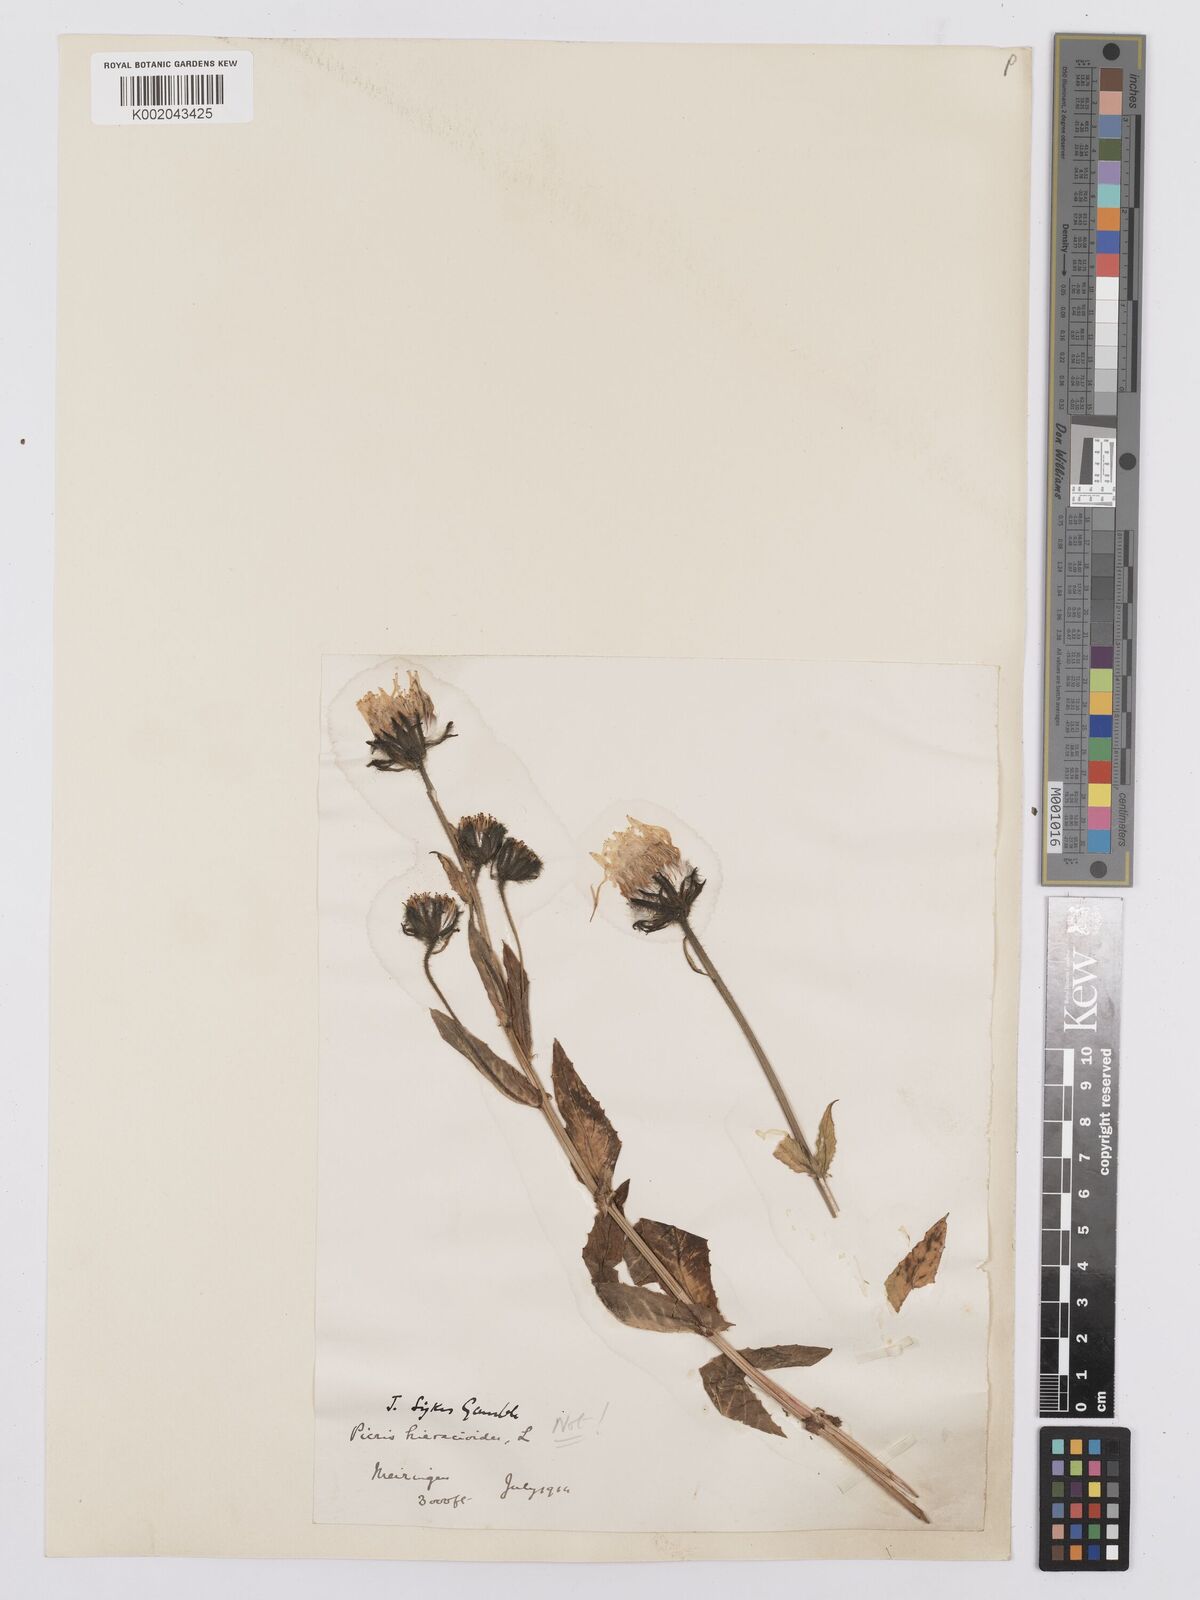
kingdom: Plantae
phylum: Tracheophyta
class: Magnoliopsida
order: Asterales
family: Asteraceae
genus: Picris
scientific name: Picris hieracioides
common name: Hawkweed oxtongue
